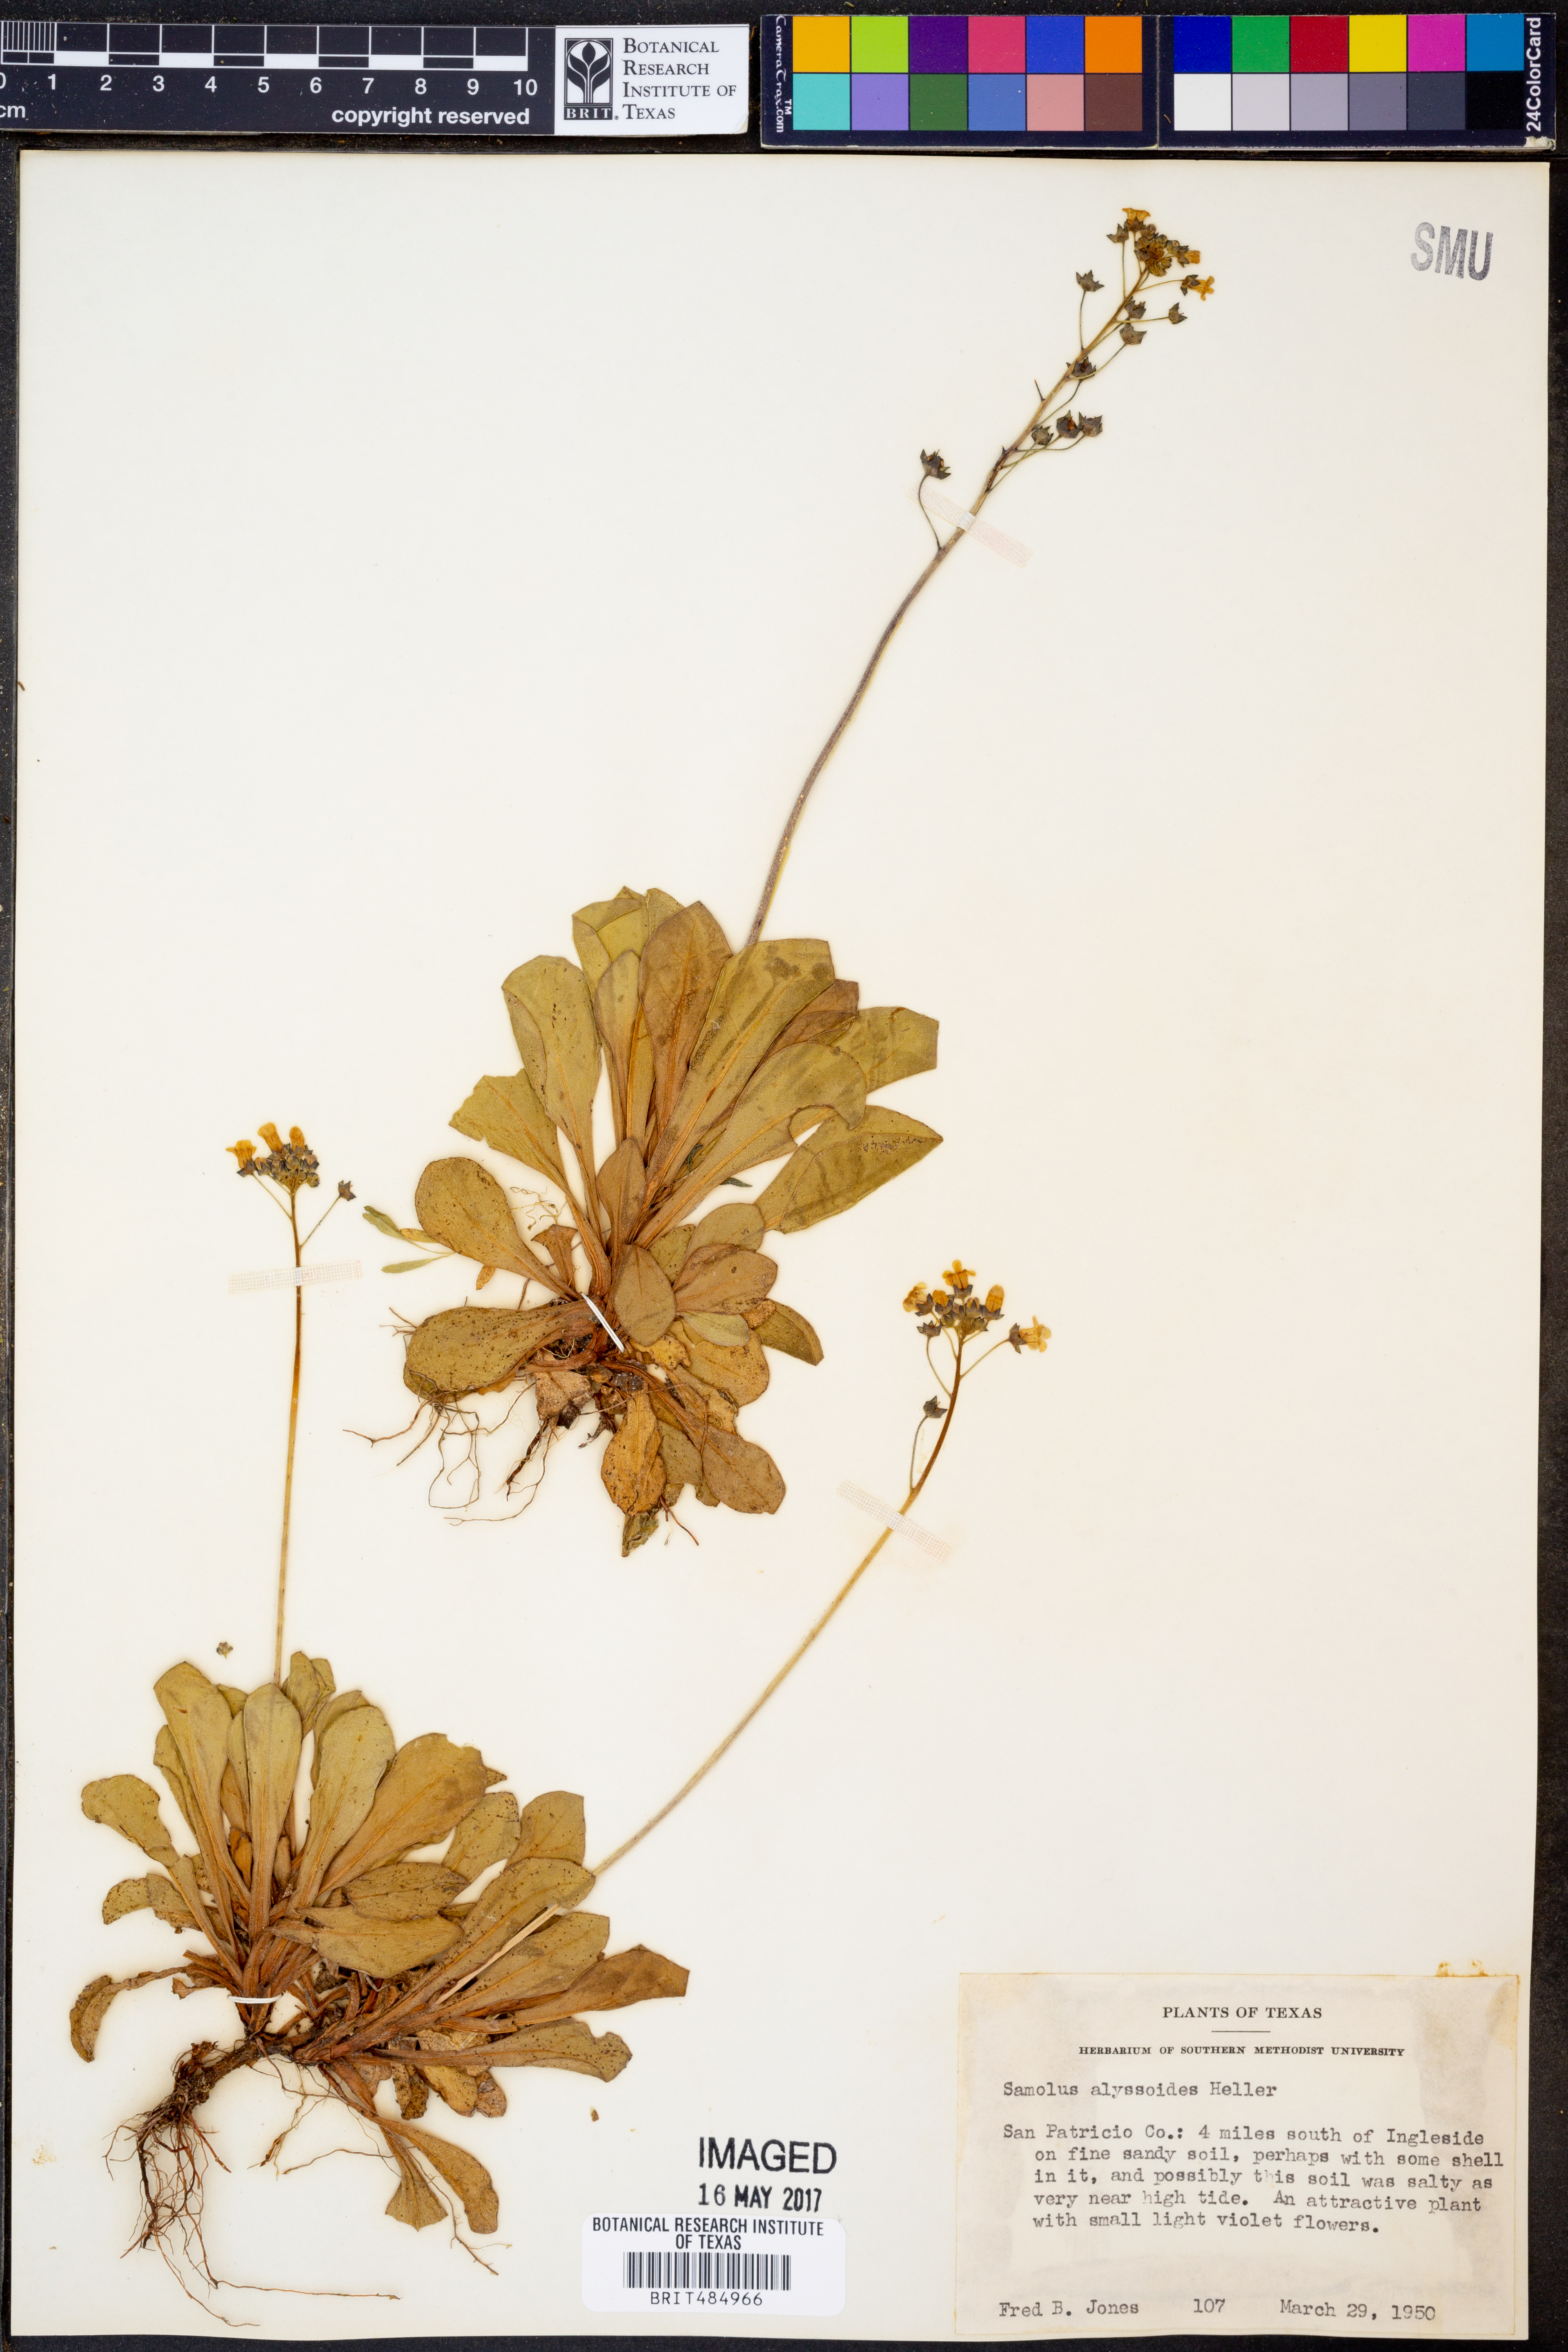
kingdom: Plantae
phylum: Tracheophyta
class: Magnoliopsida
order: Ericales
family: Primulaceae
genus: Samolus
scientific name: Samolus ebracteatus
